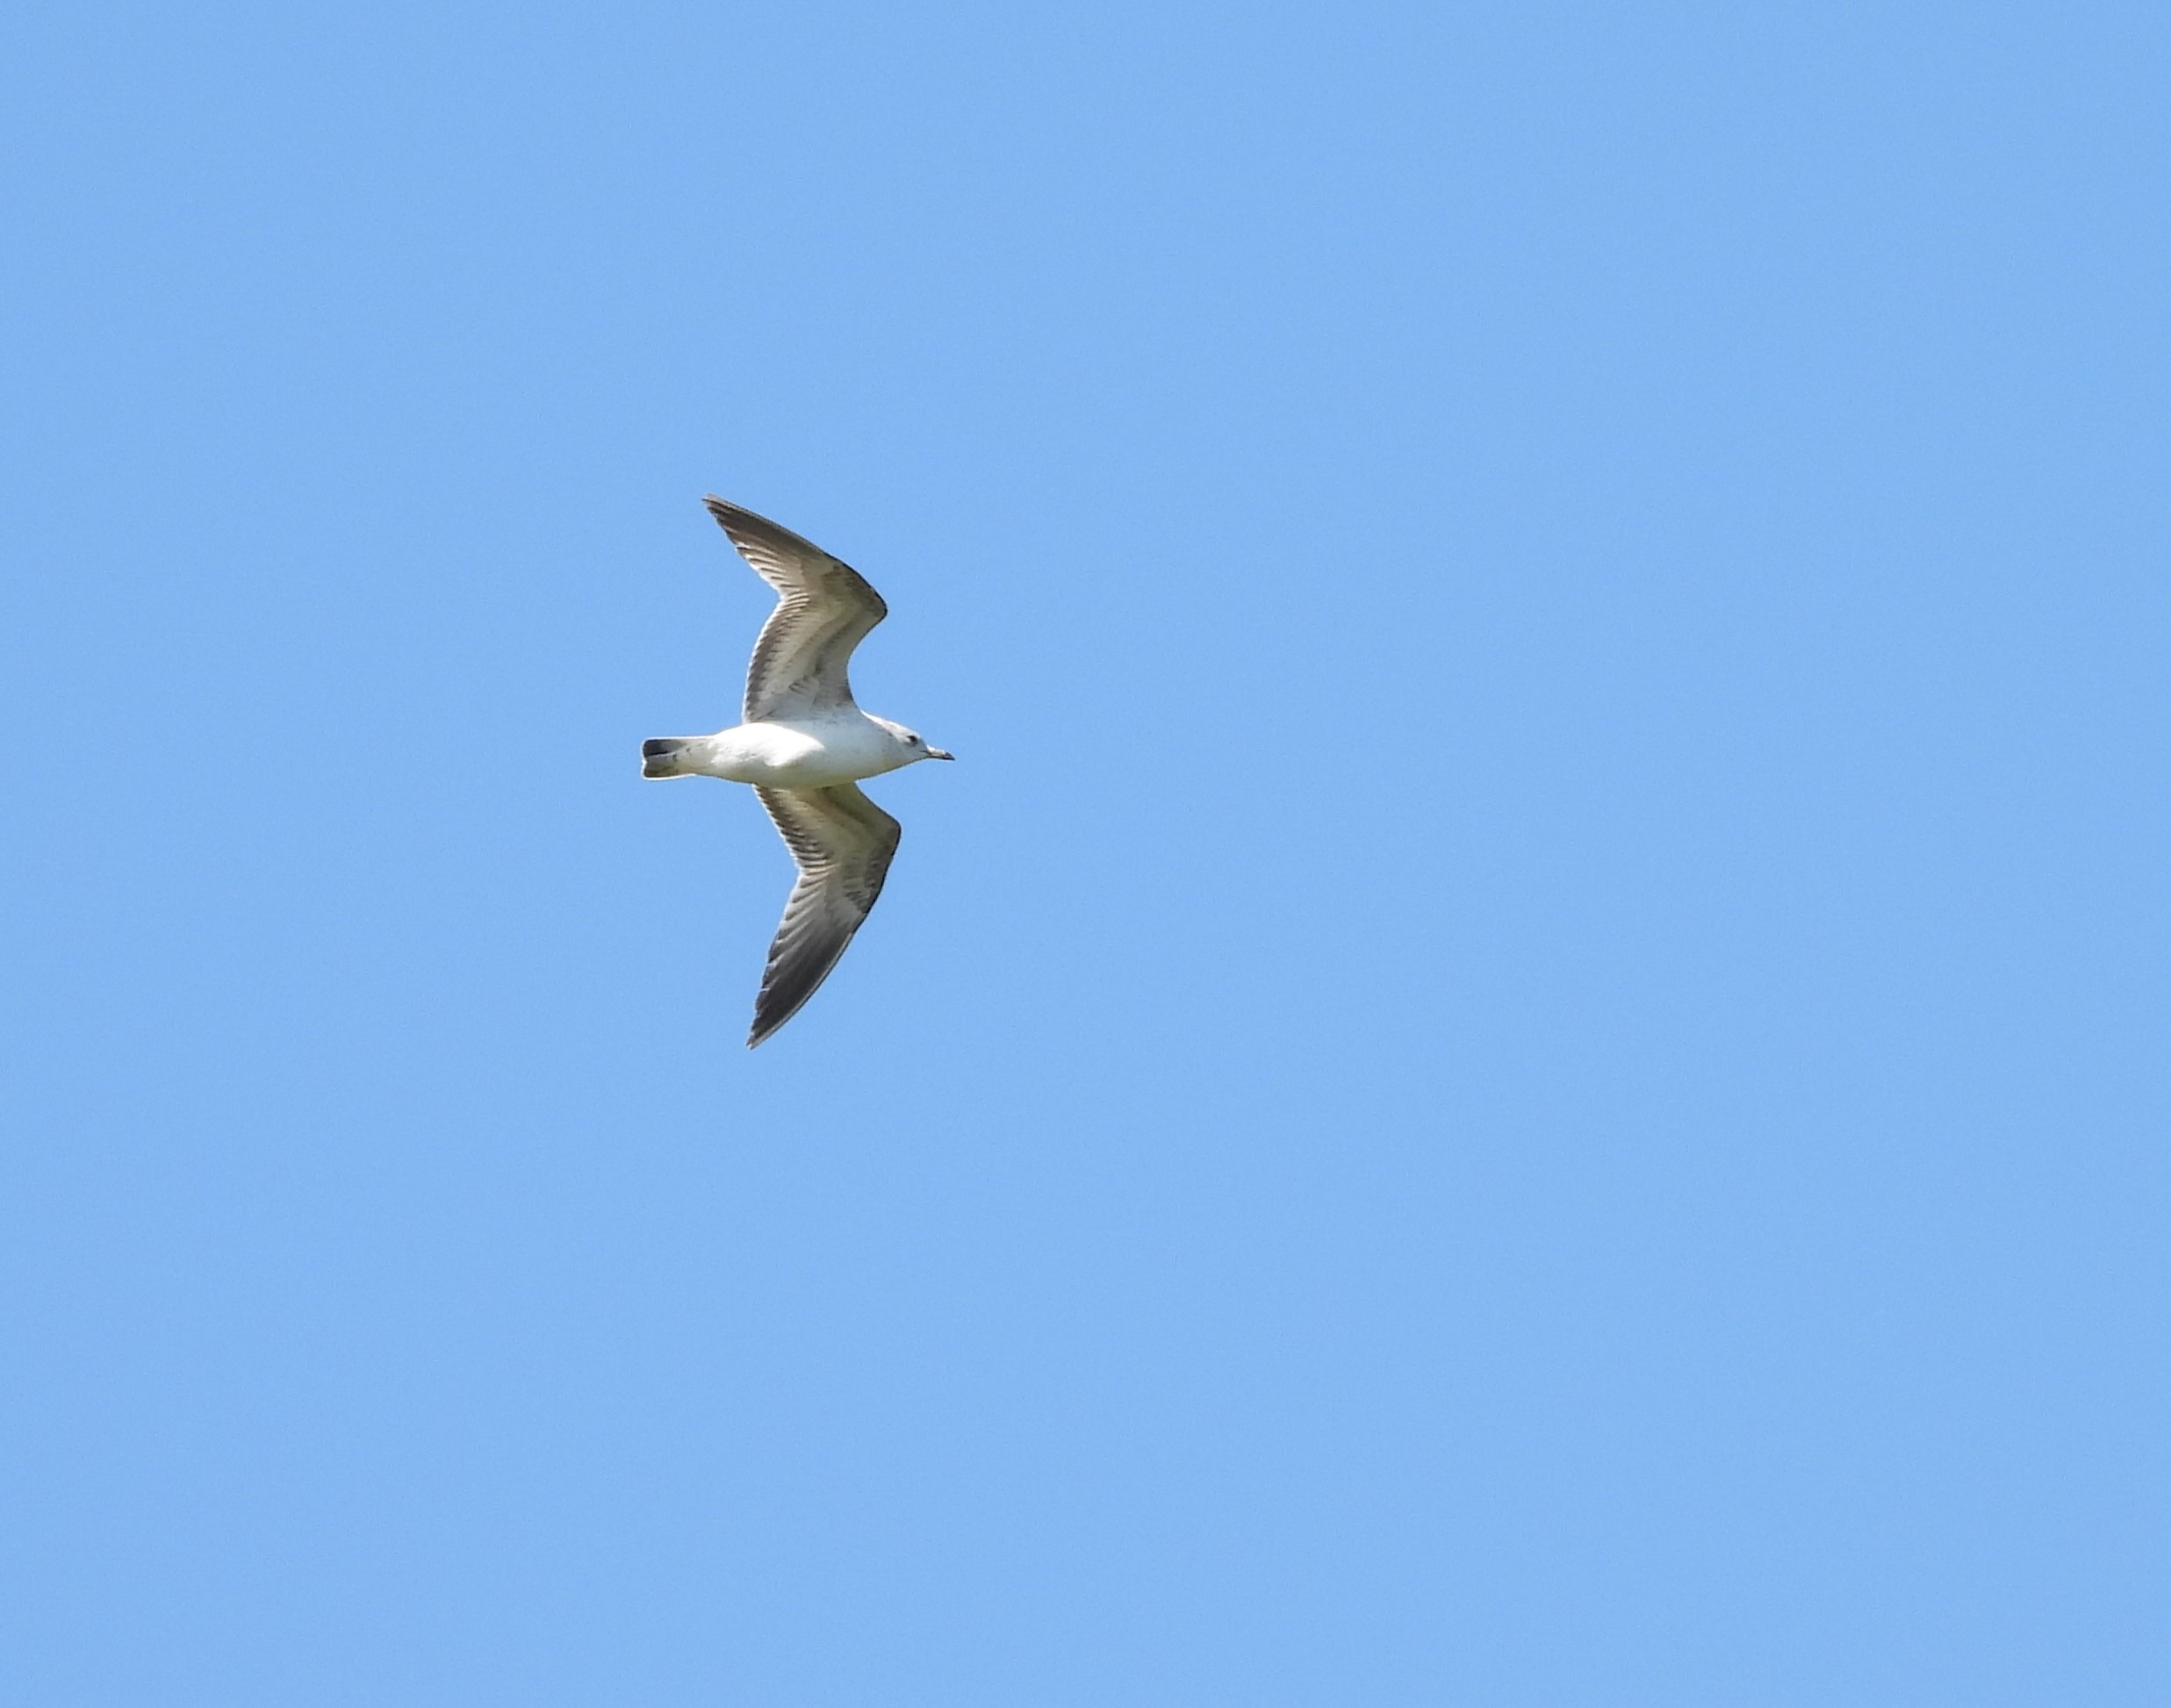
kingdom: Animalia
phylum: Chordata
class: Aves
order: Charadriiformes
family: Laridae
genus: Larus
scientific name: Larus canus
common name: Stormmåge
